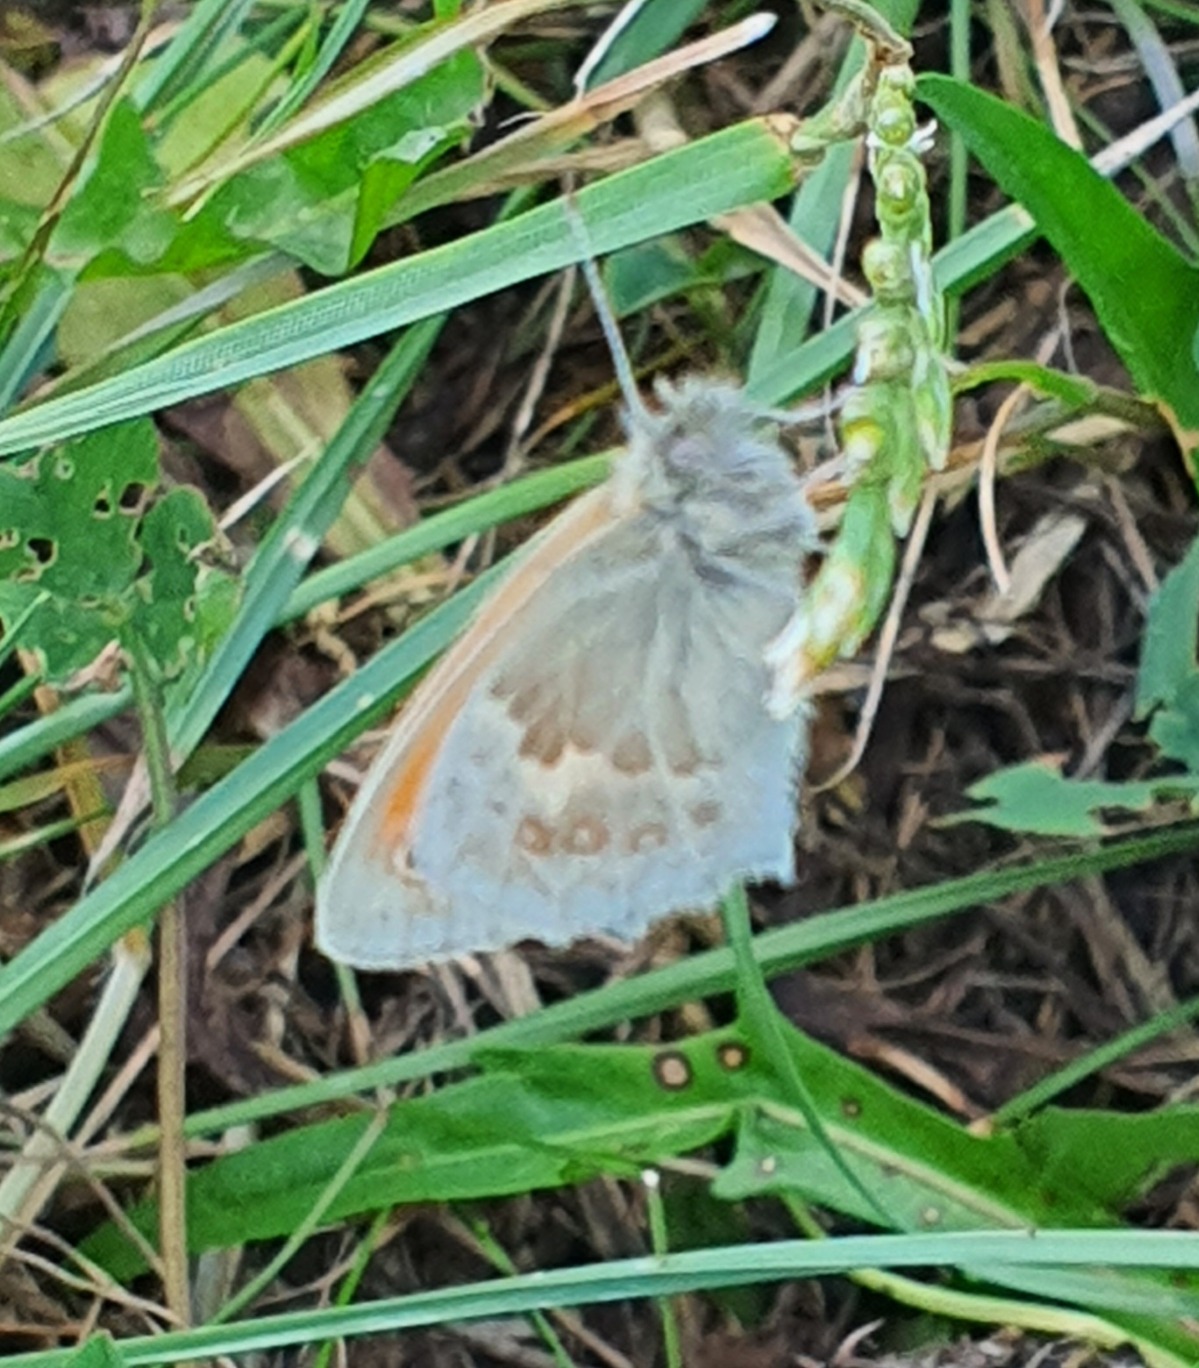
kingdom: Animalia
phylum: Arthropoda
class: Insecta
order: Lepidoptera
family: Nymphalidae
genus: Coenonympha
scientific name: Coenonympha pamphilus
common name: Okkergul randøje
